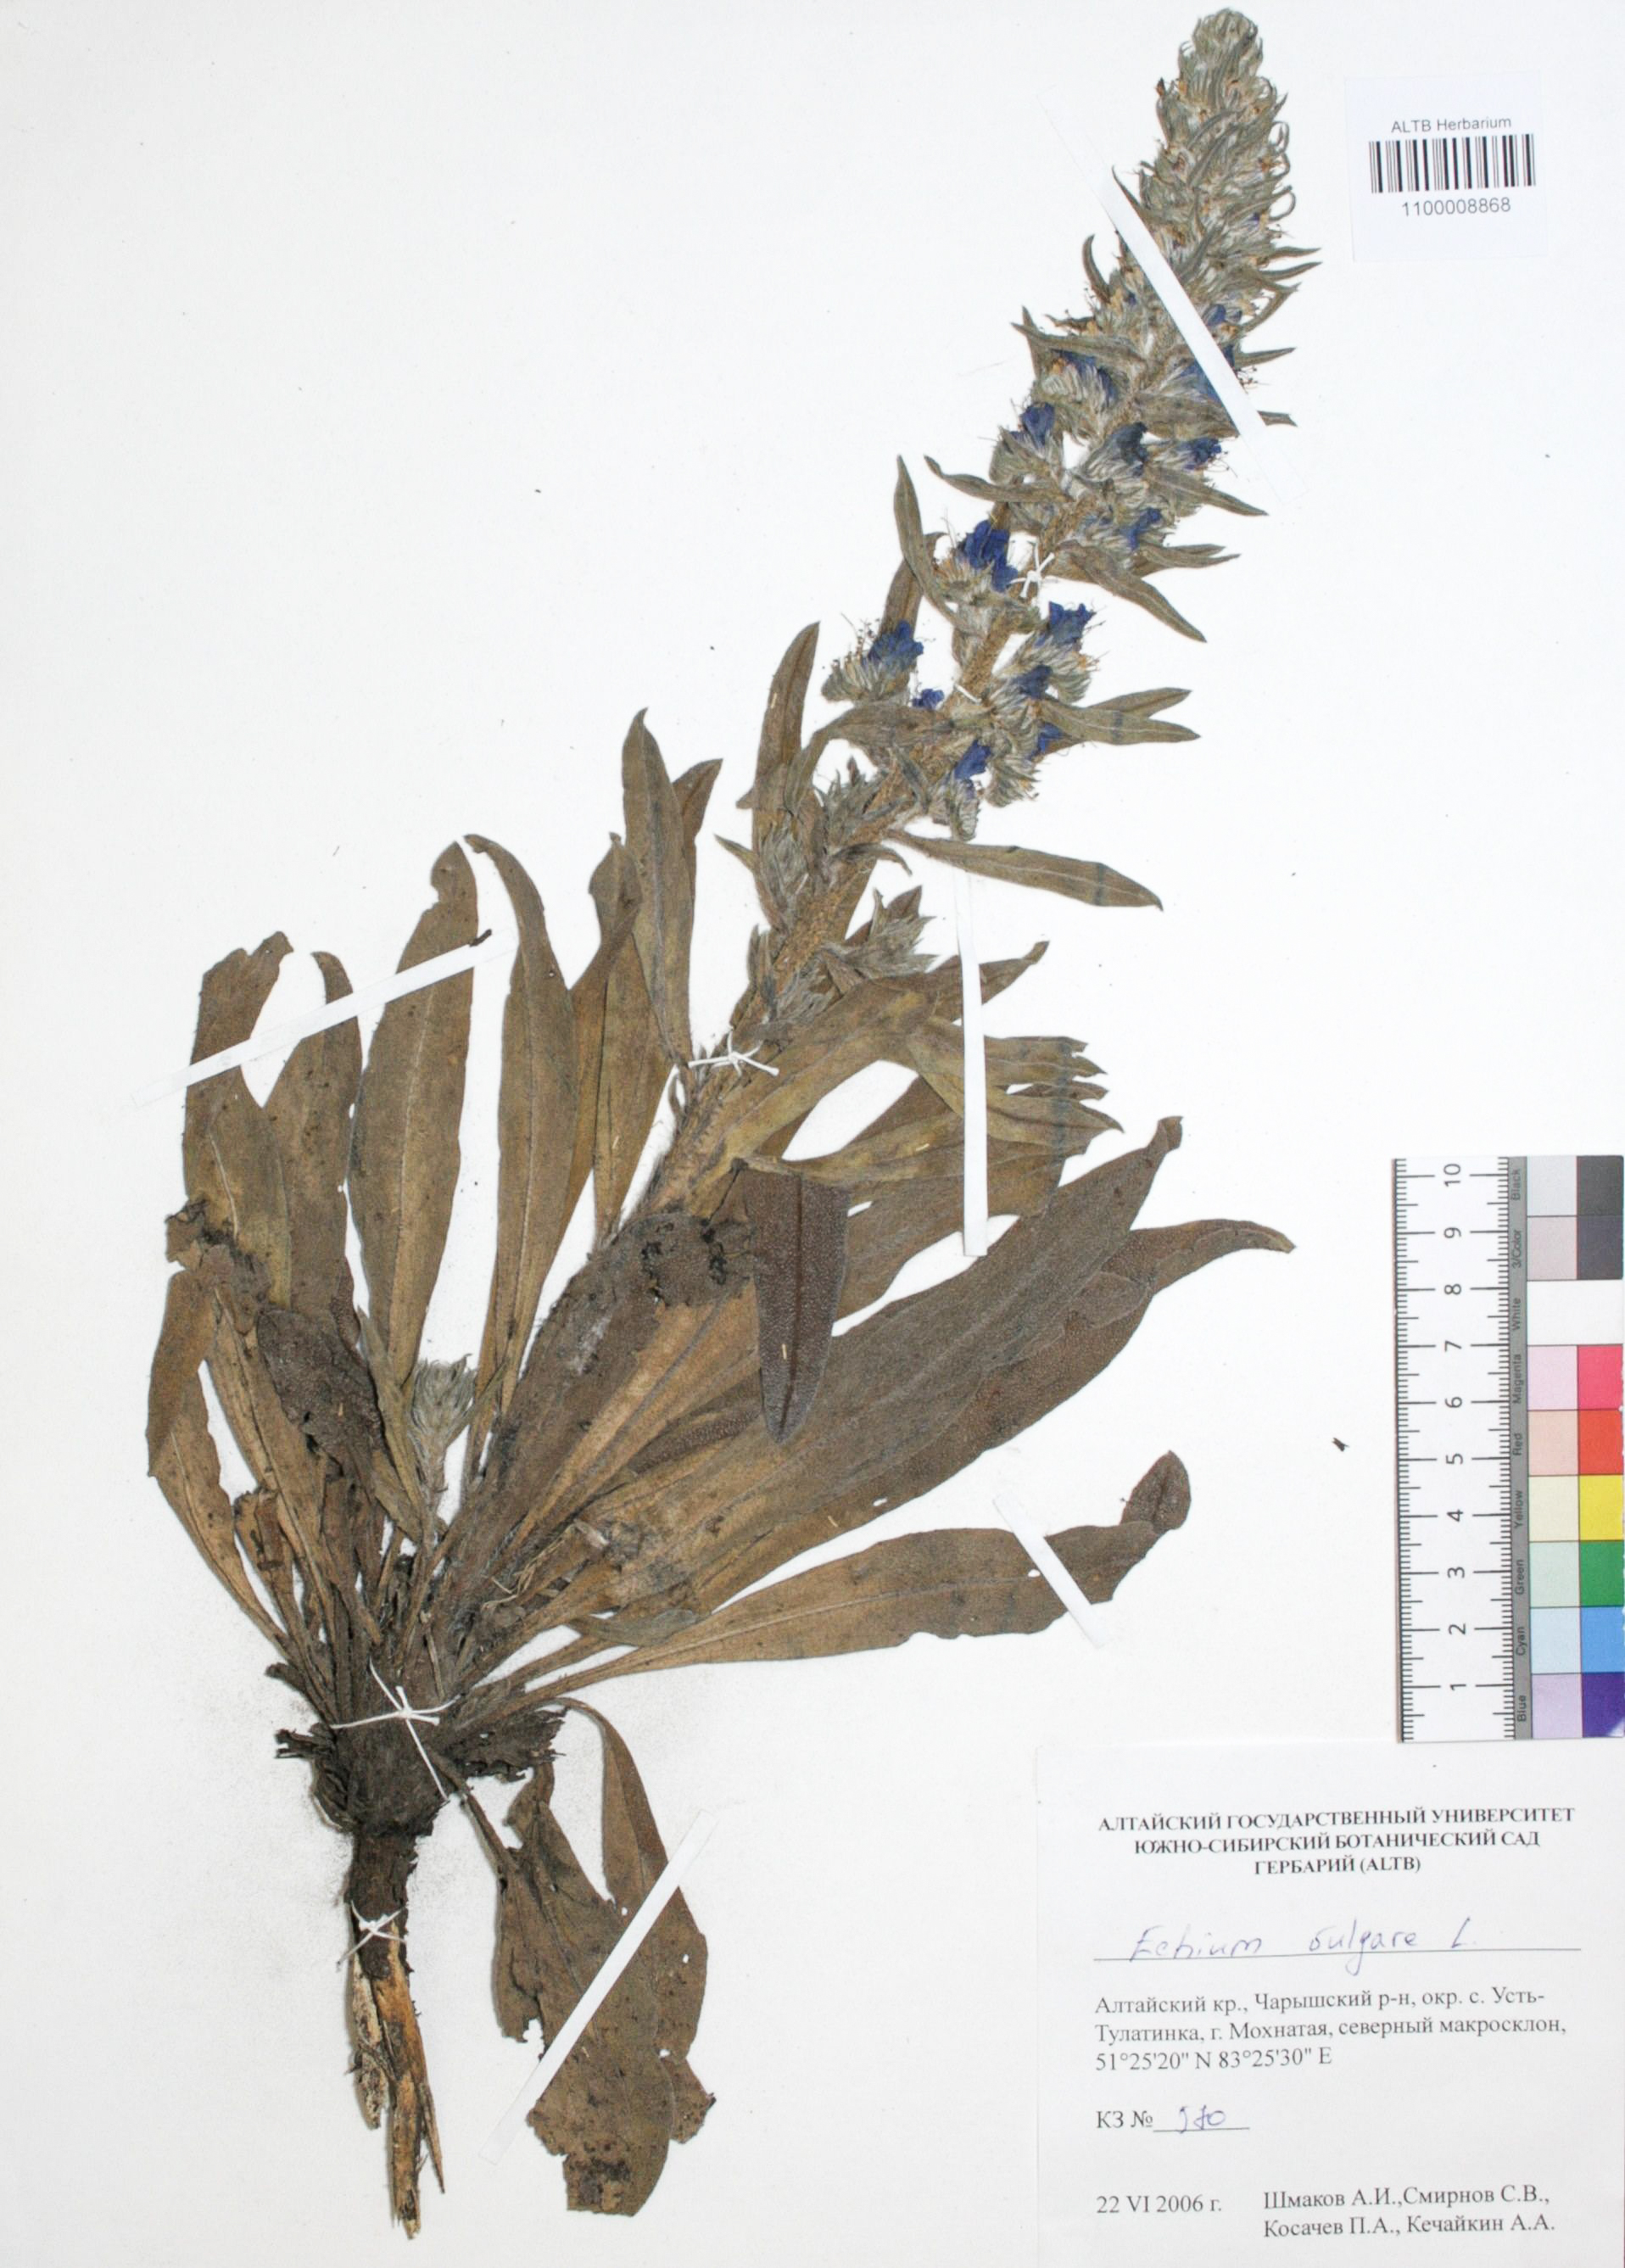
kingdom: Plantae
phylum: Tracheophyta
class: Magnoliopsida
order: Boraginales
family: Boraginaceae
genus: Echium
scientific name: Echium vulgare
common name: Common viper's bugloss
